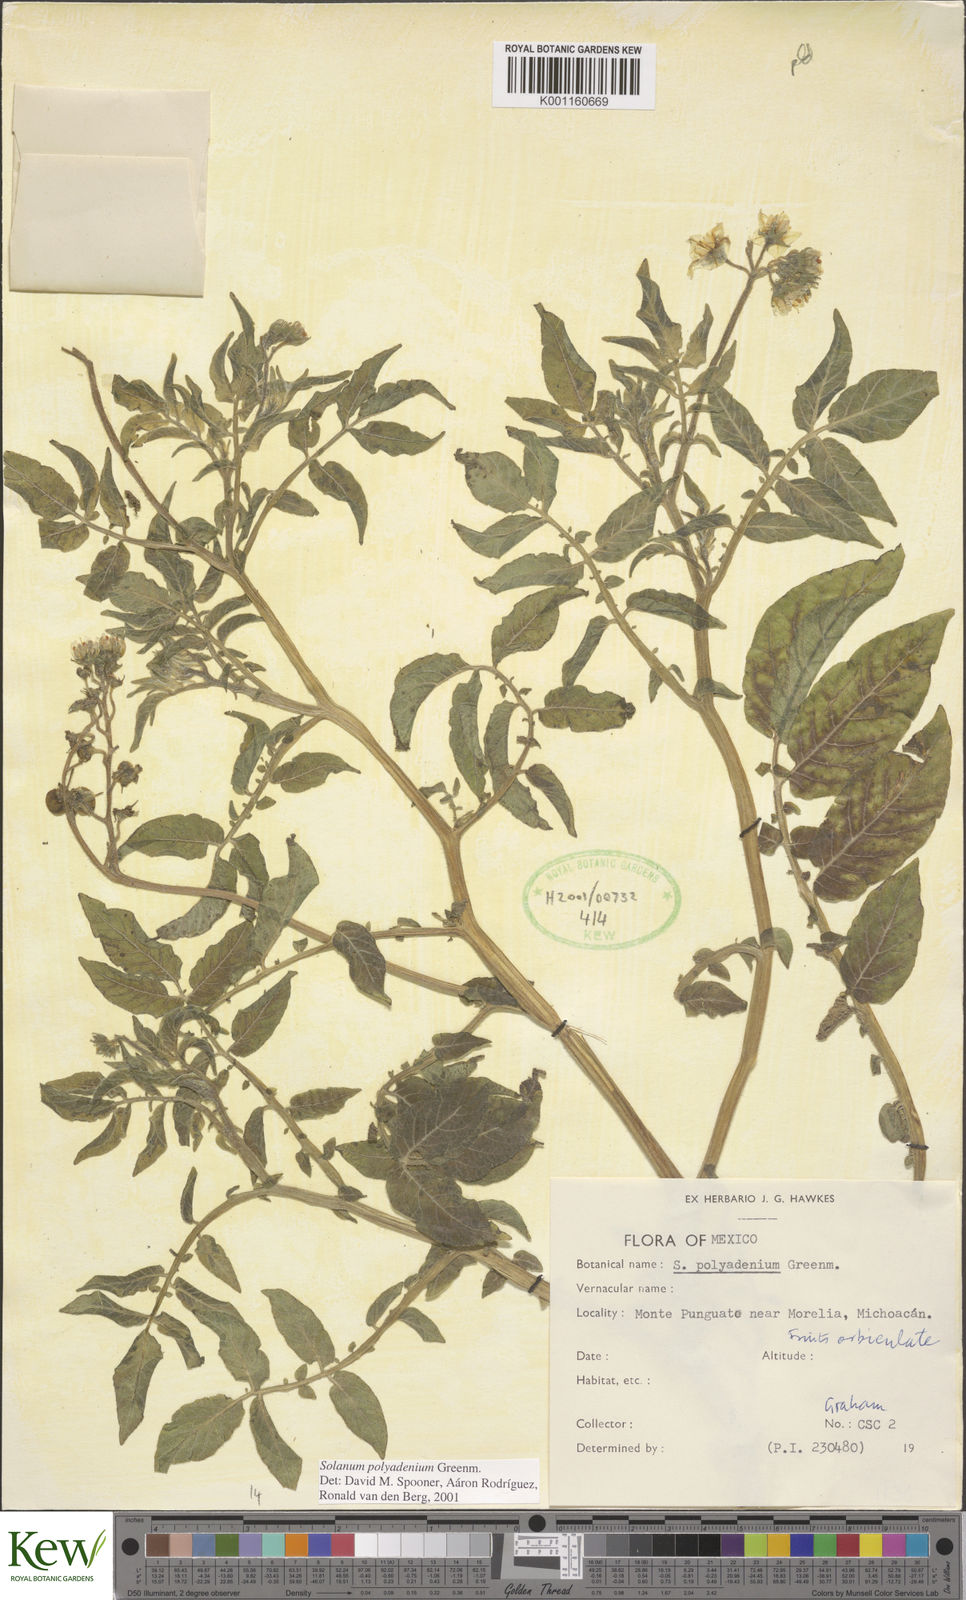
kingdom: Plantae
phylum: Tracheophyta
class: Magnoliopsida
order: Solanales
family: Solanaceae
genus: Solanum
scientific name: Solanum polyadenium
